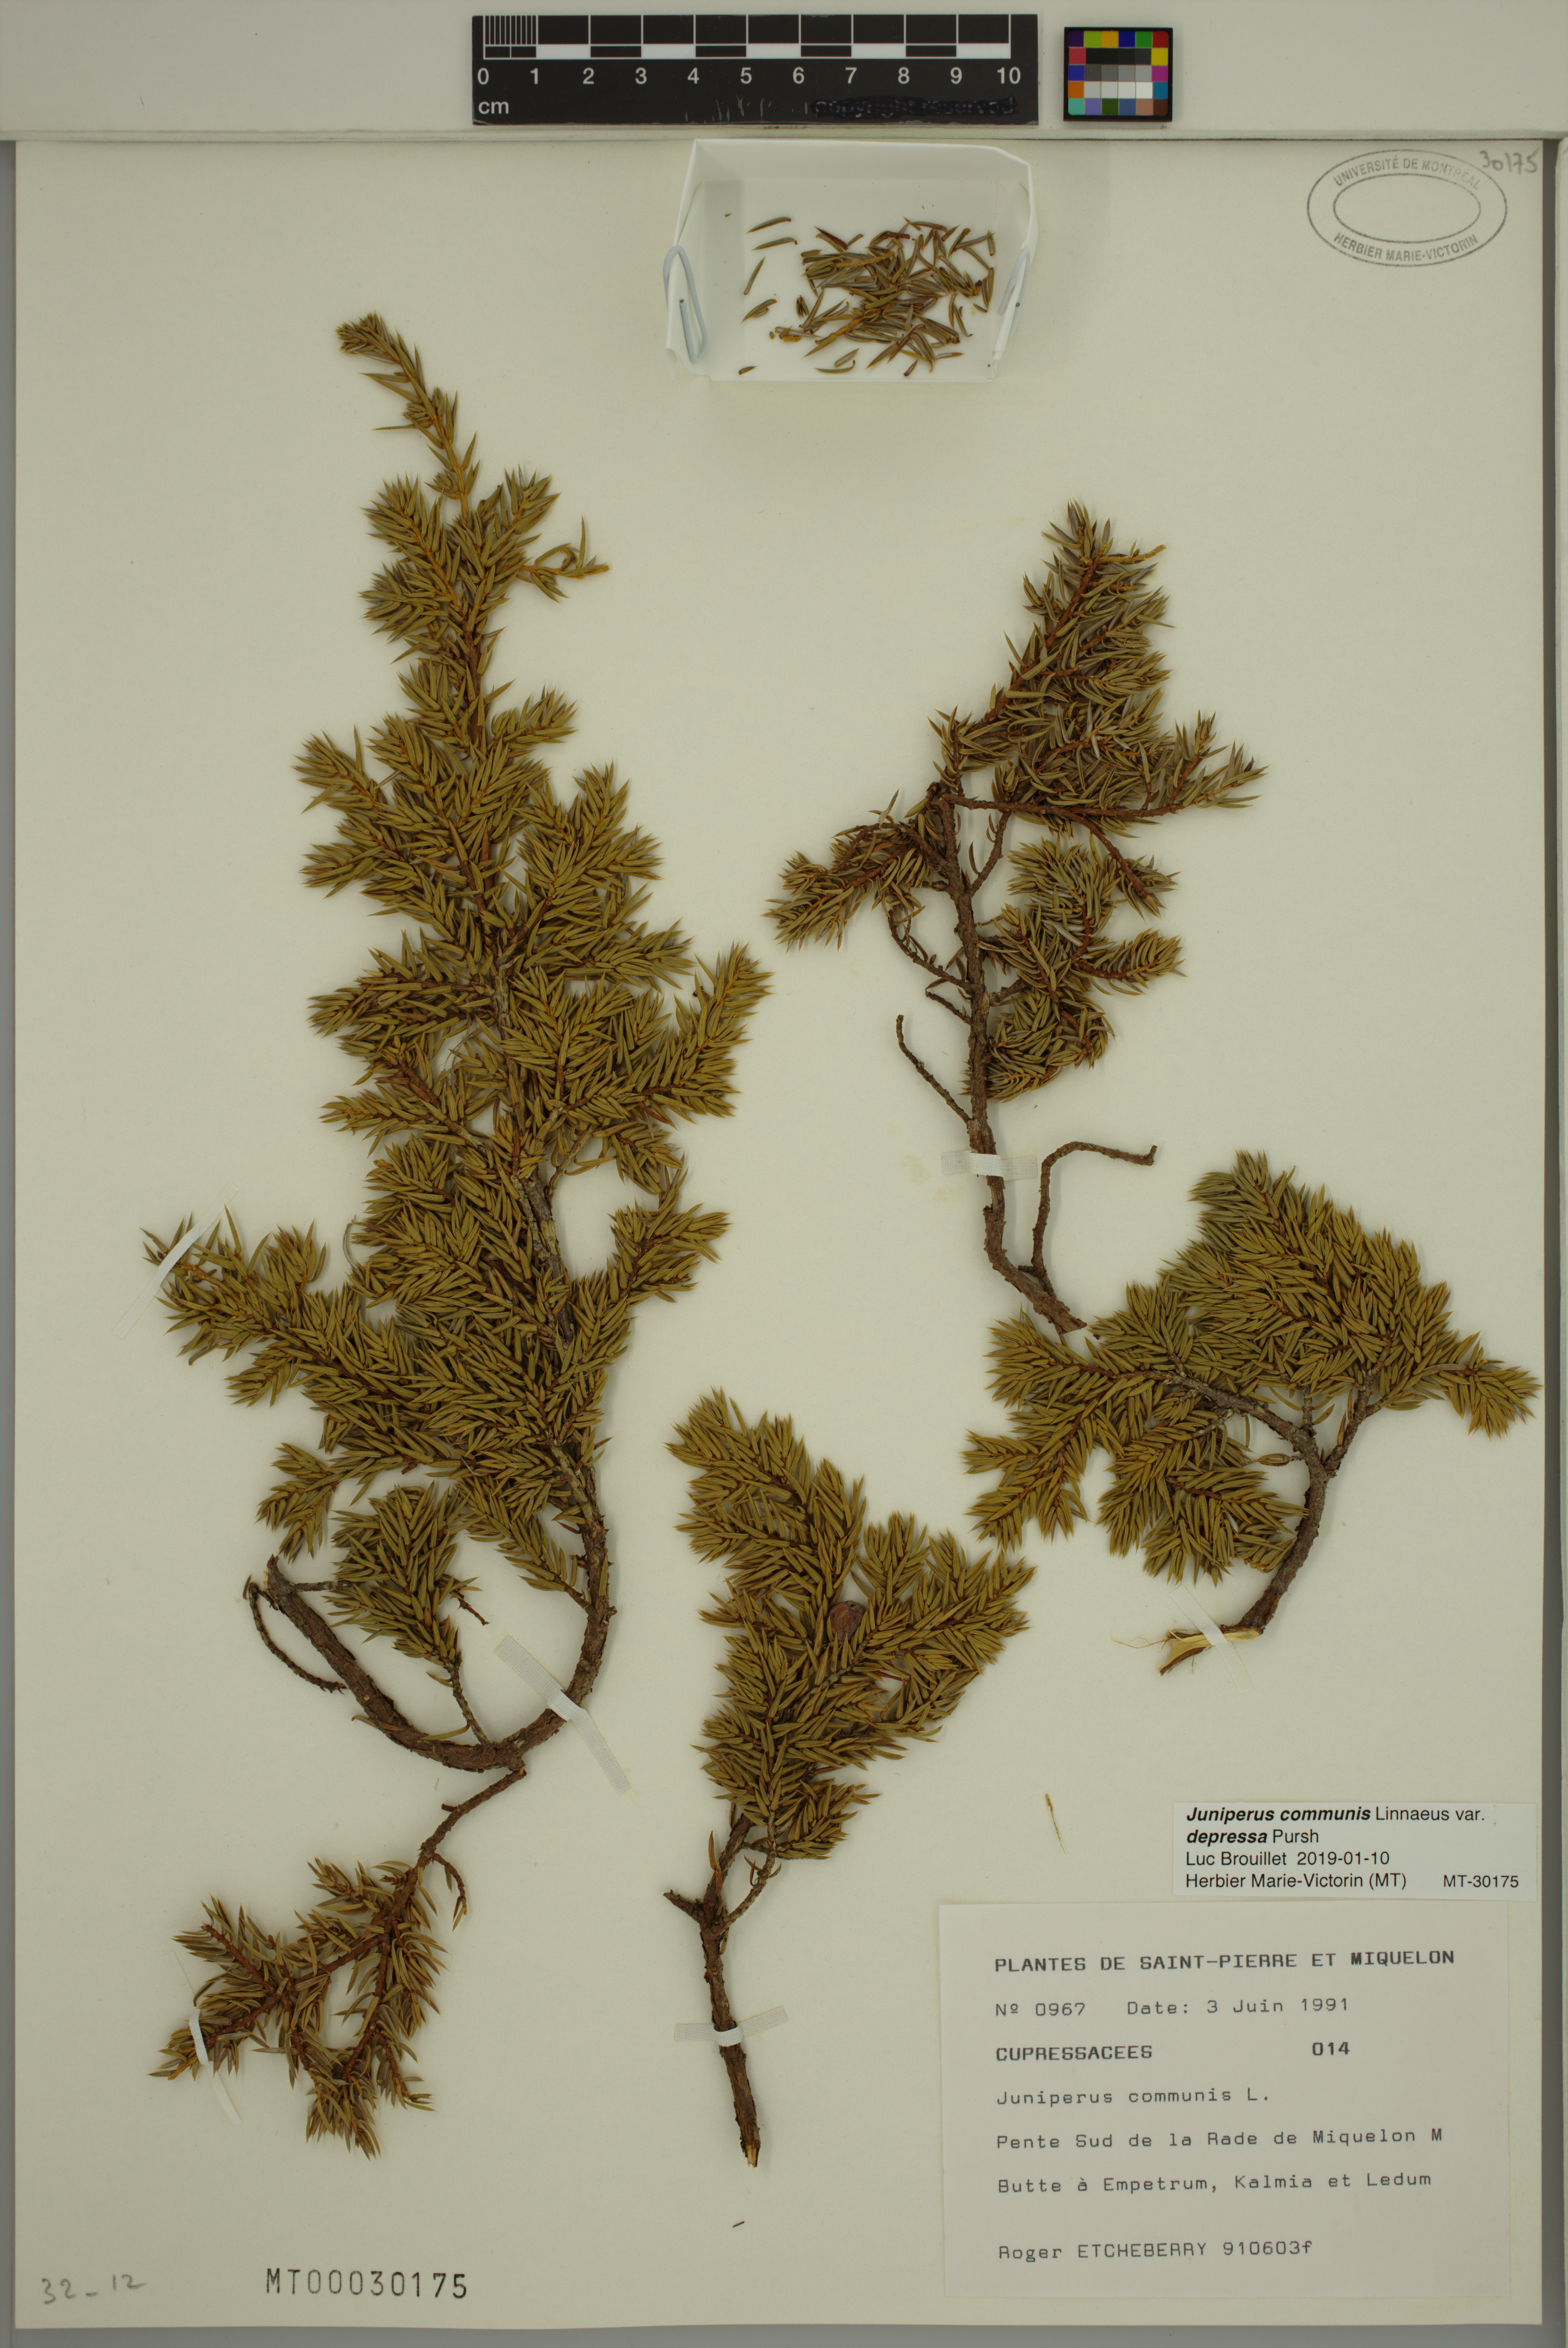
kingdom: Plantae
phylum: Tracheophyta
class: Pinopsida
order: Pinales
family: Cupressaceae
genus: Juniperus
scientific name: Juniperus communis
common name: Common juniper
